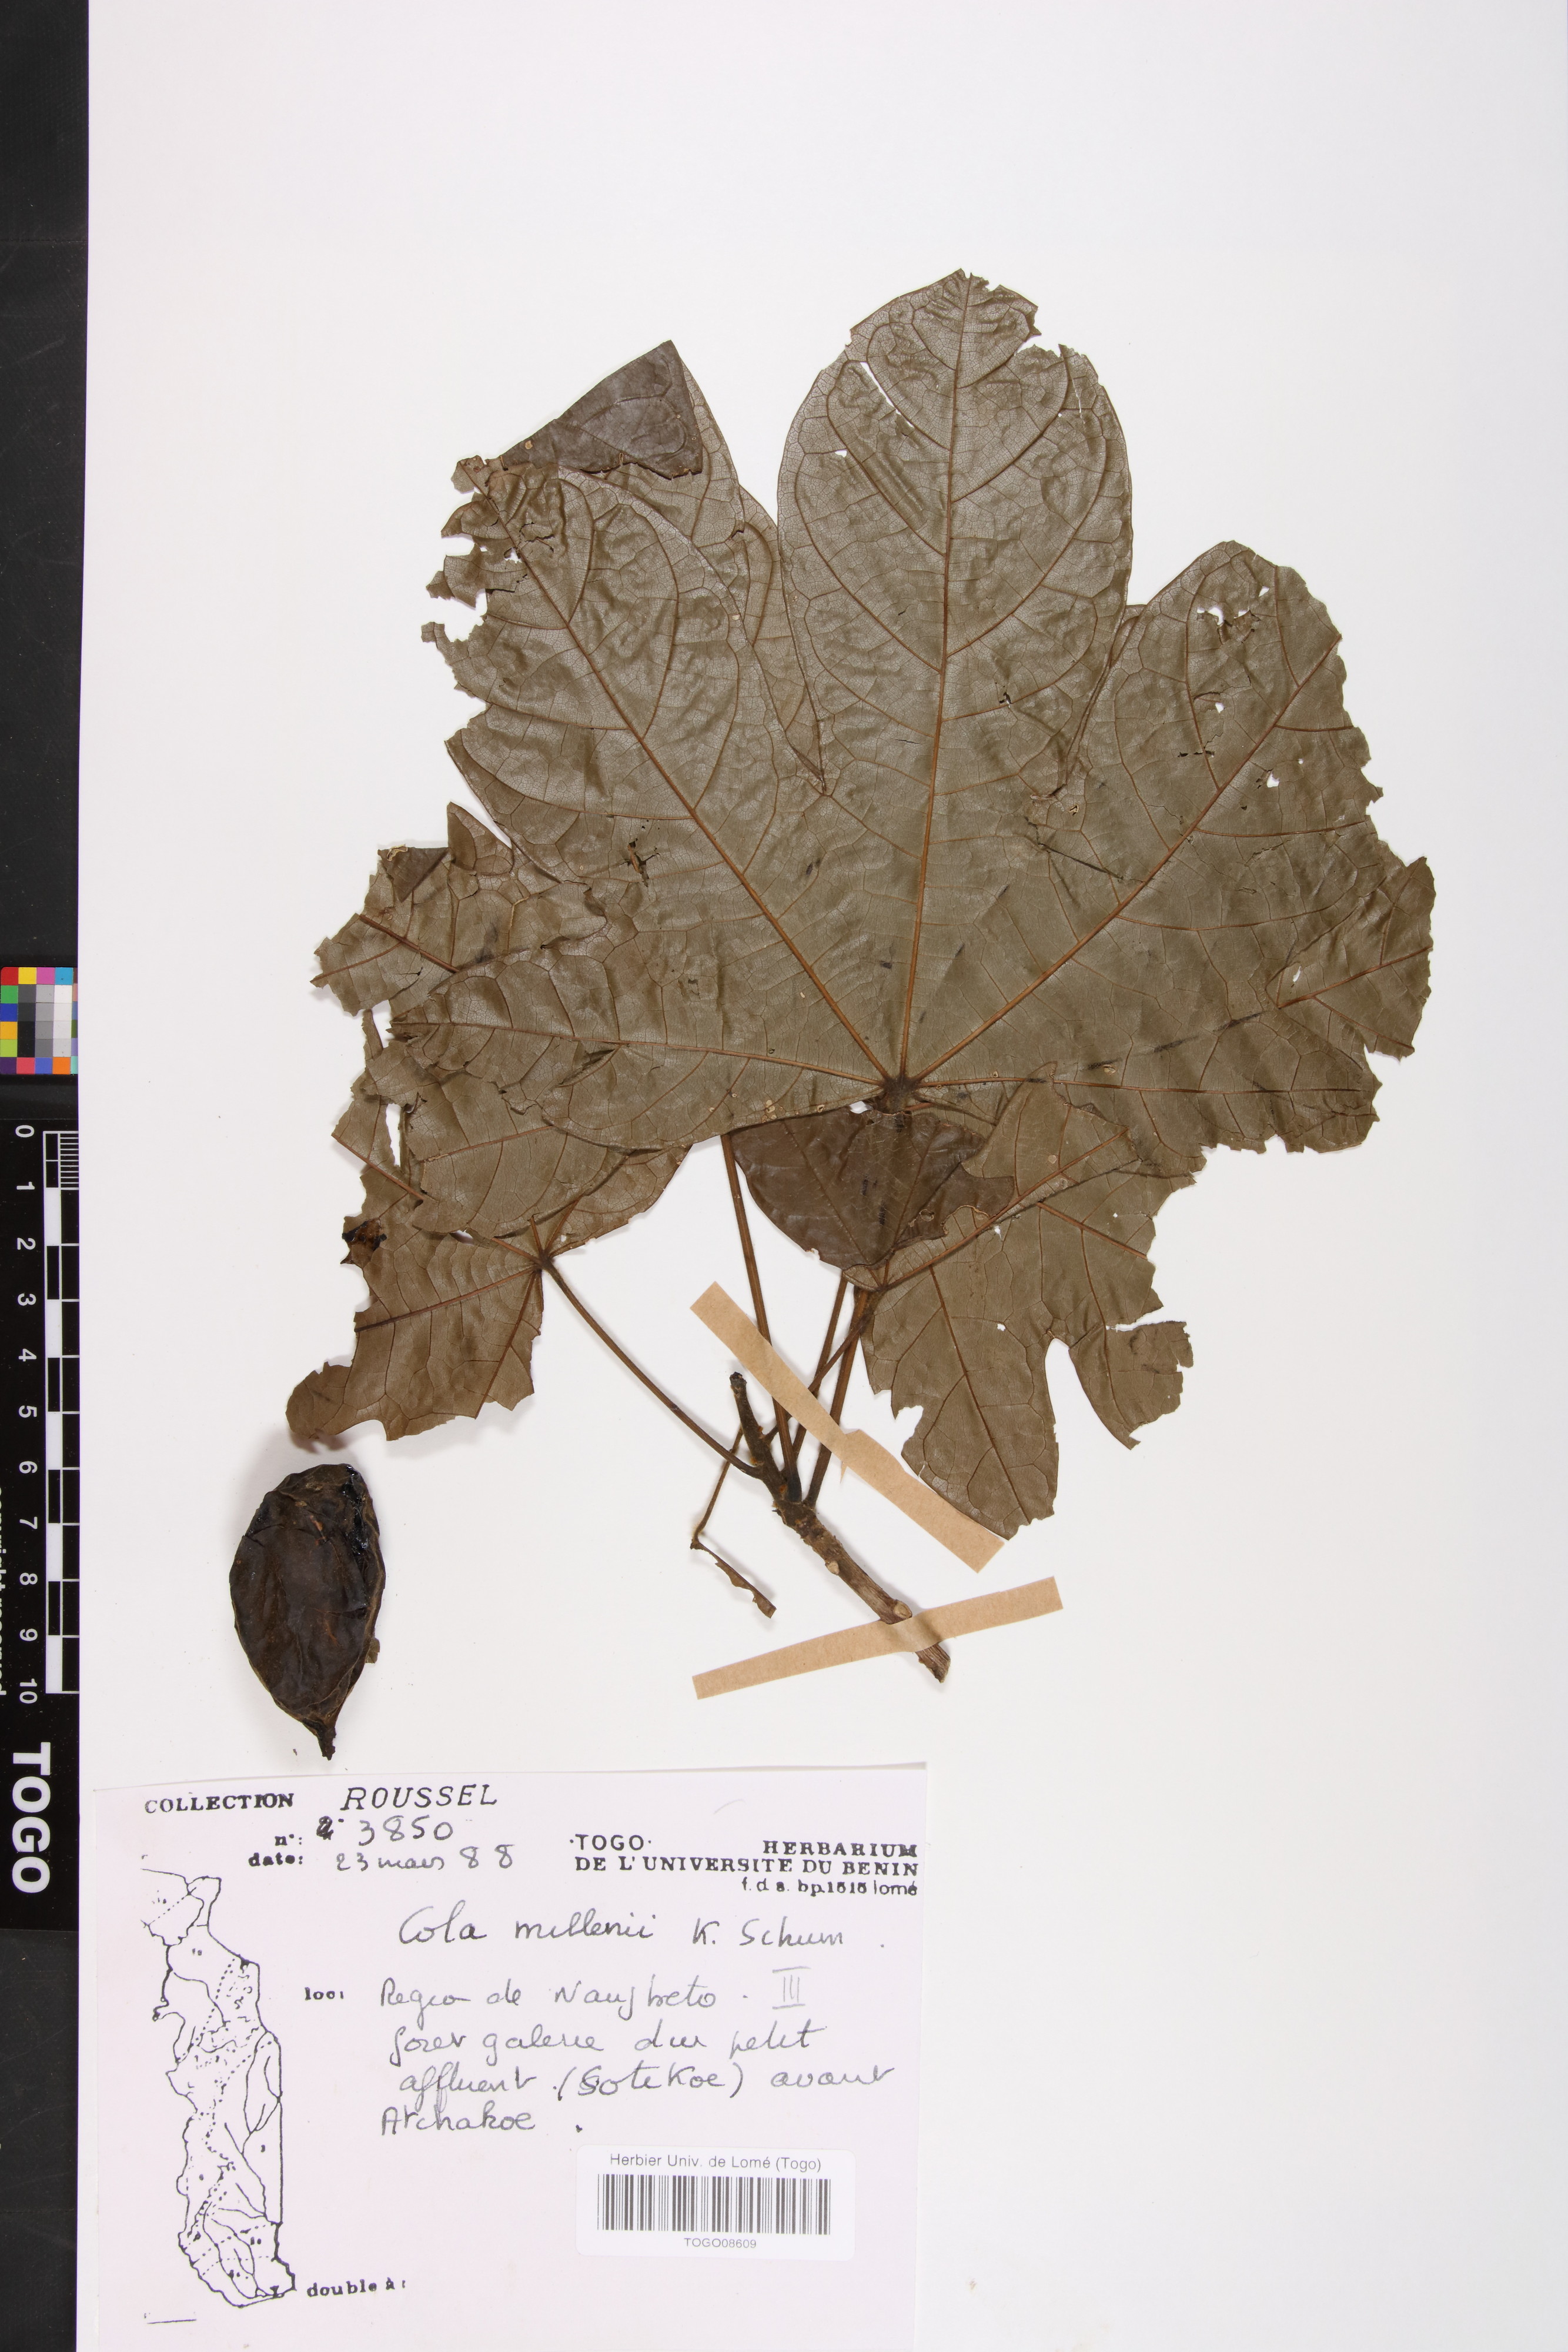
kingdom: Plantae
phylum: Tracheophyta
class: Magnoliopsida
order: Malvales
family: Malvaceae
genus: Cola
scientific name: Cola millenii
